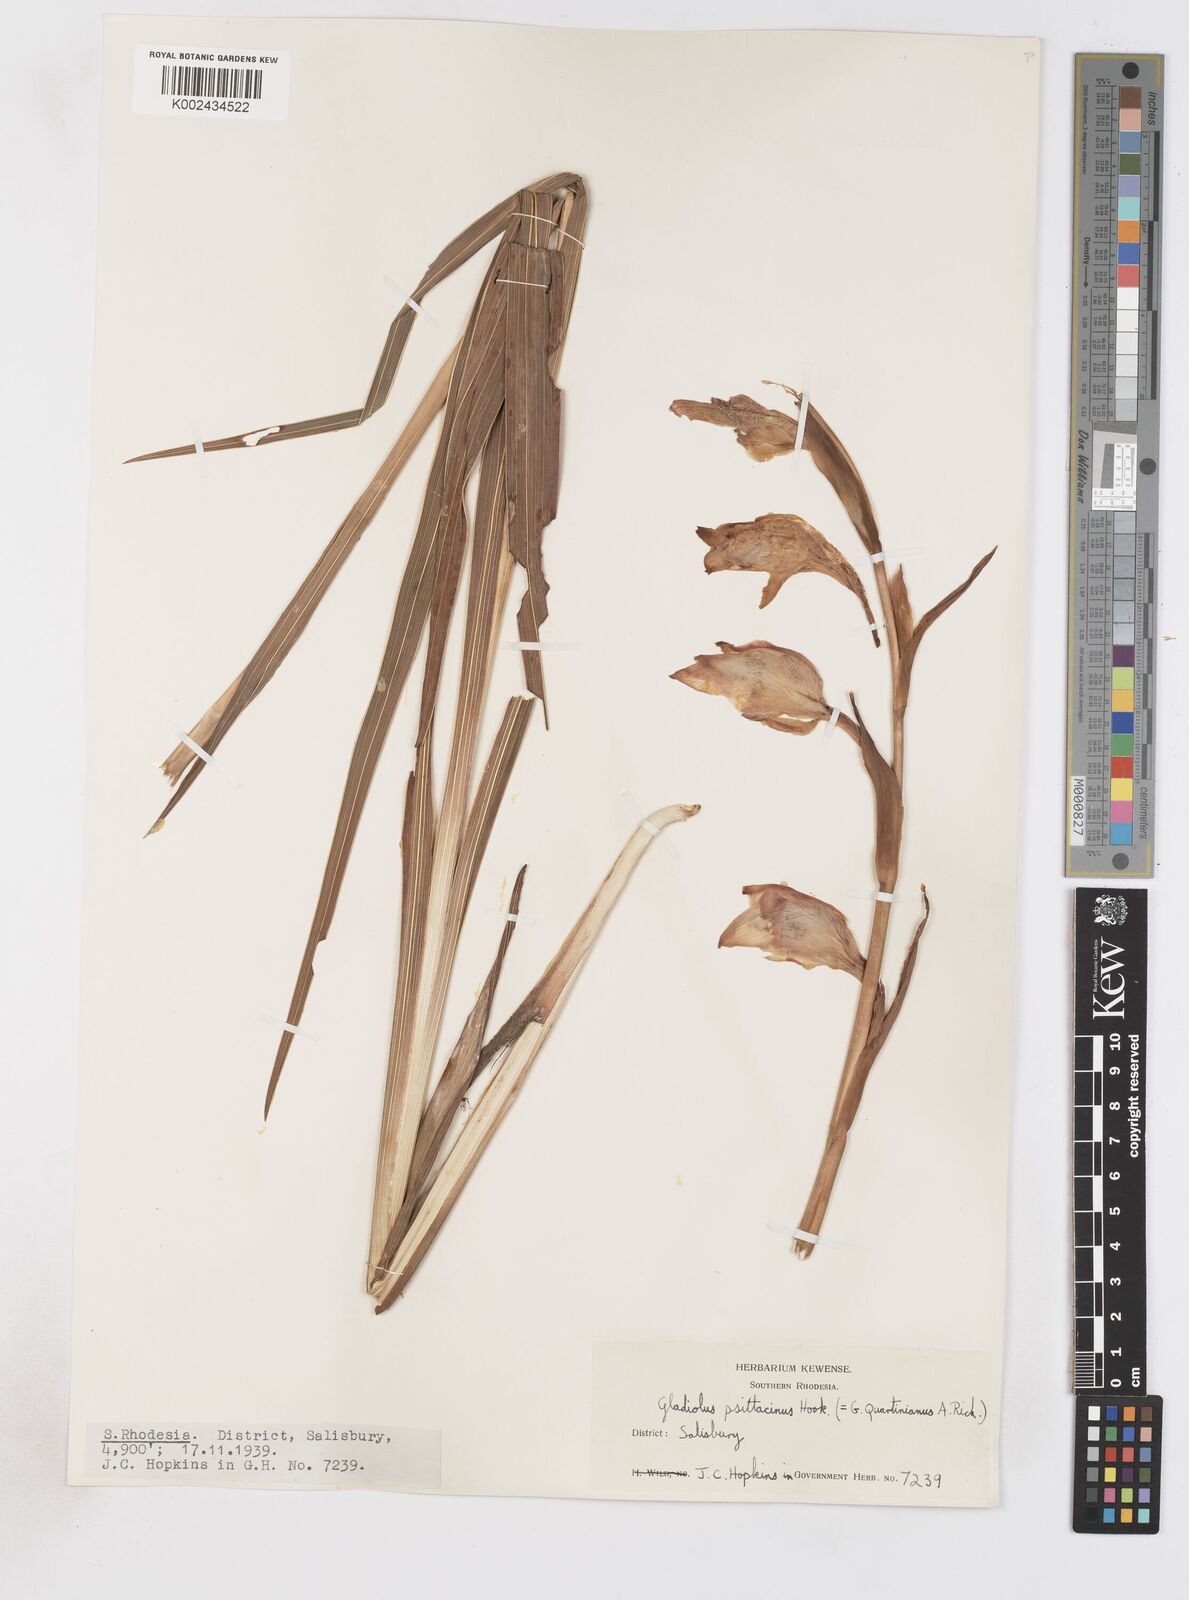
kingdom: Plantae
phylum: Tracheophyta
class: Liliopsida
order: Asparagales
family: Iridaceae
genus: Gladiolus
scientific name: Gladiolus dalenii
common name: Cornflag
